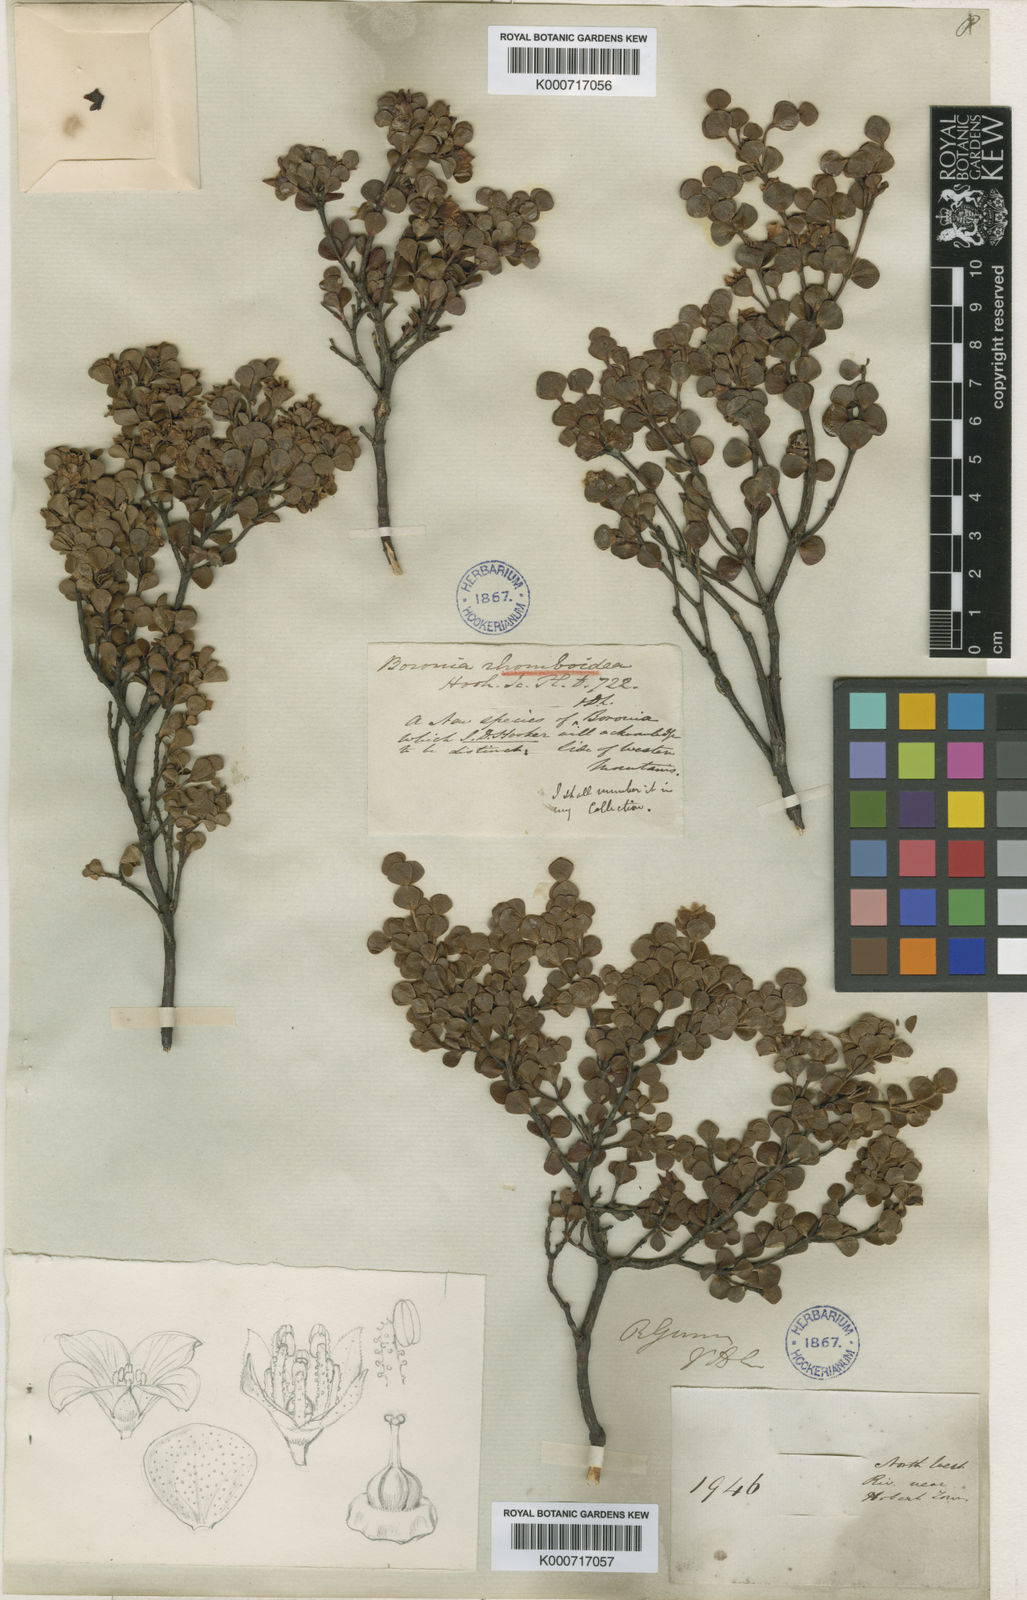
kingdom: Plantae
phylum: Tracheophyta
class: Magnoliopsida
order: Sapindales
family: Rutaceae
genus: Boronia
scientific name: Boronia rhomboidea
